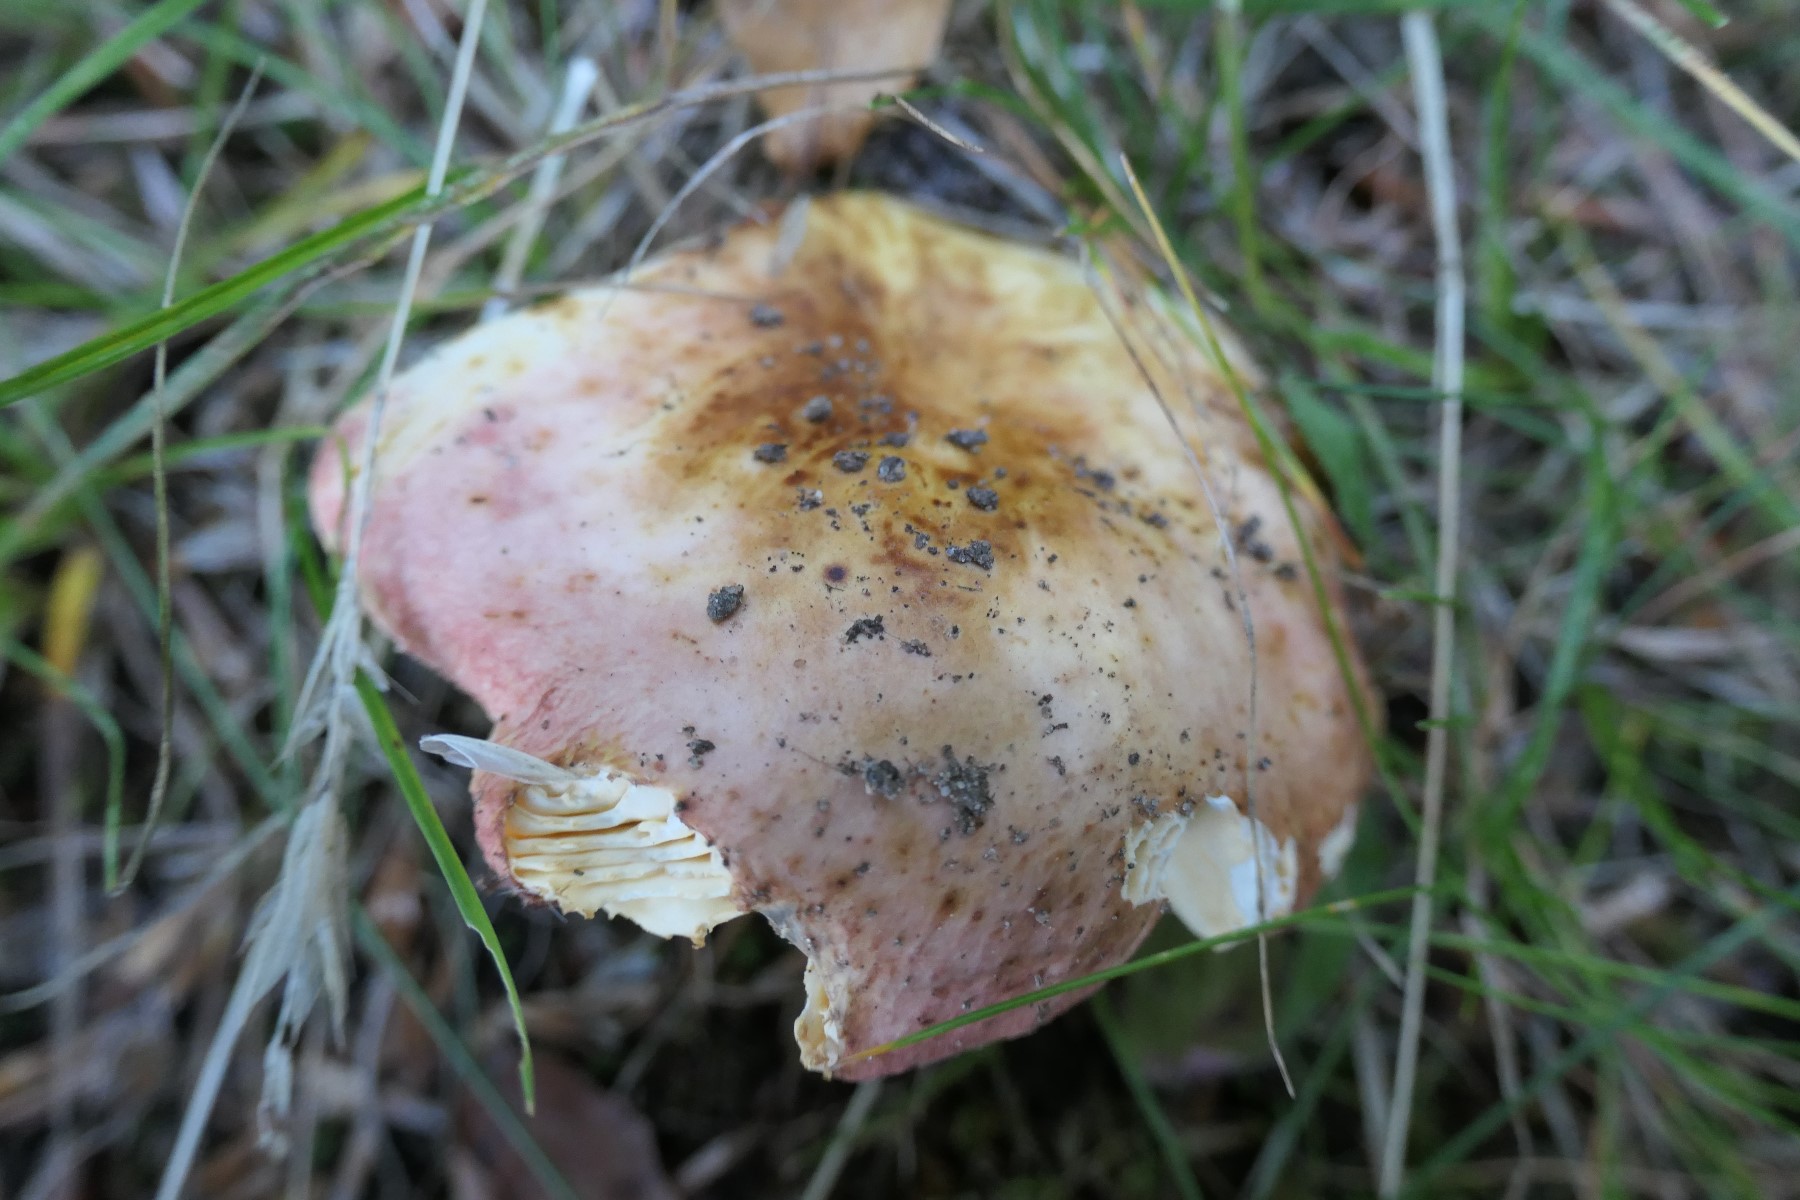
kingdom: Fungi
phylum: Basidiomycota
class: Agaricomycetes
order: Russulales
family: Russulaceae
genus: Russula
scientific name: Russula maculata
